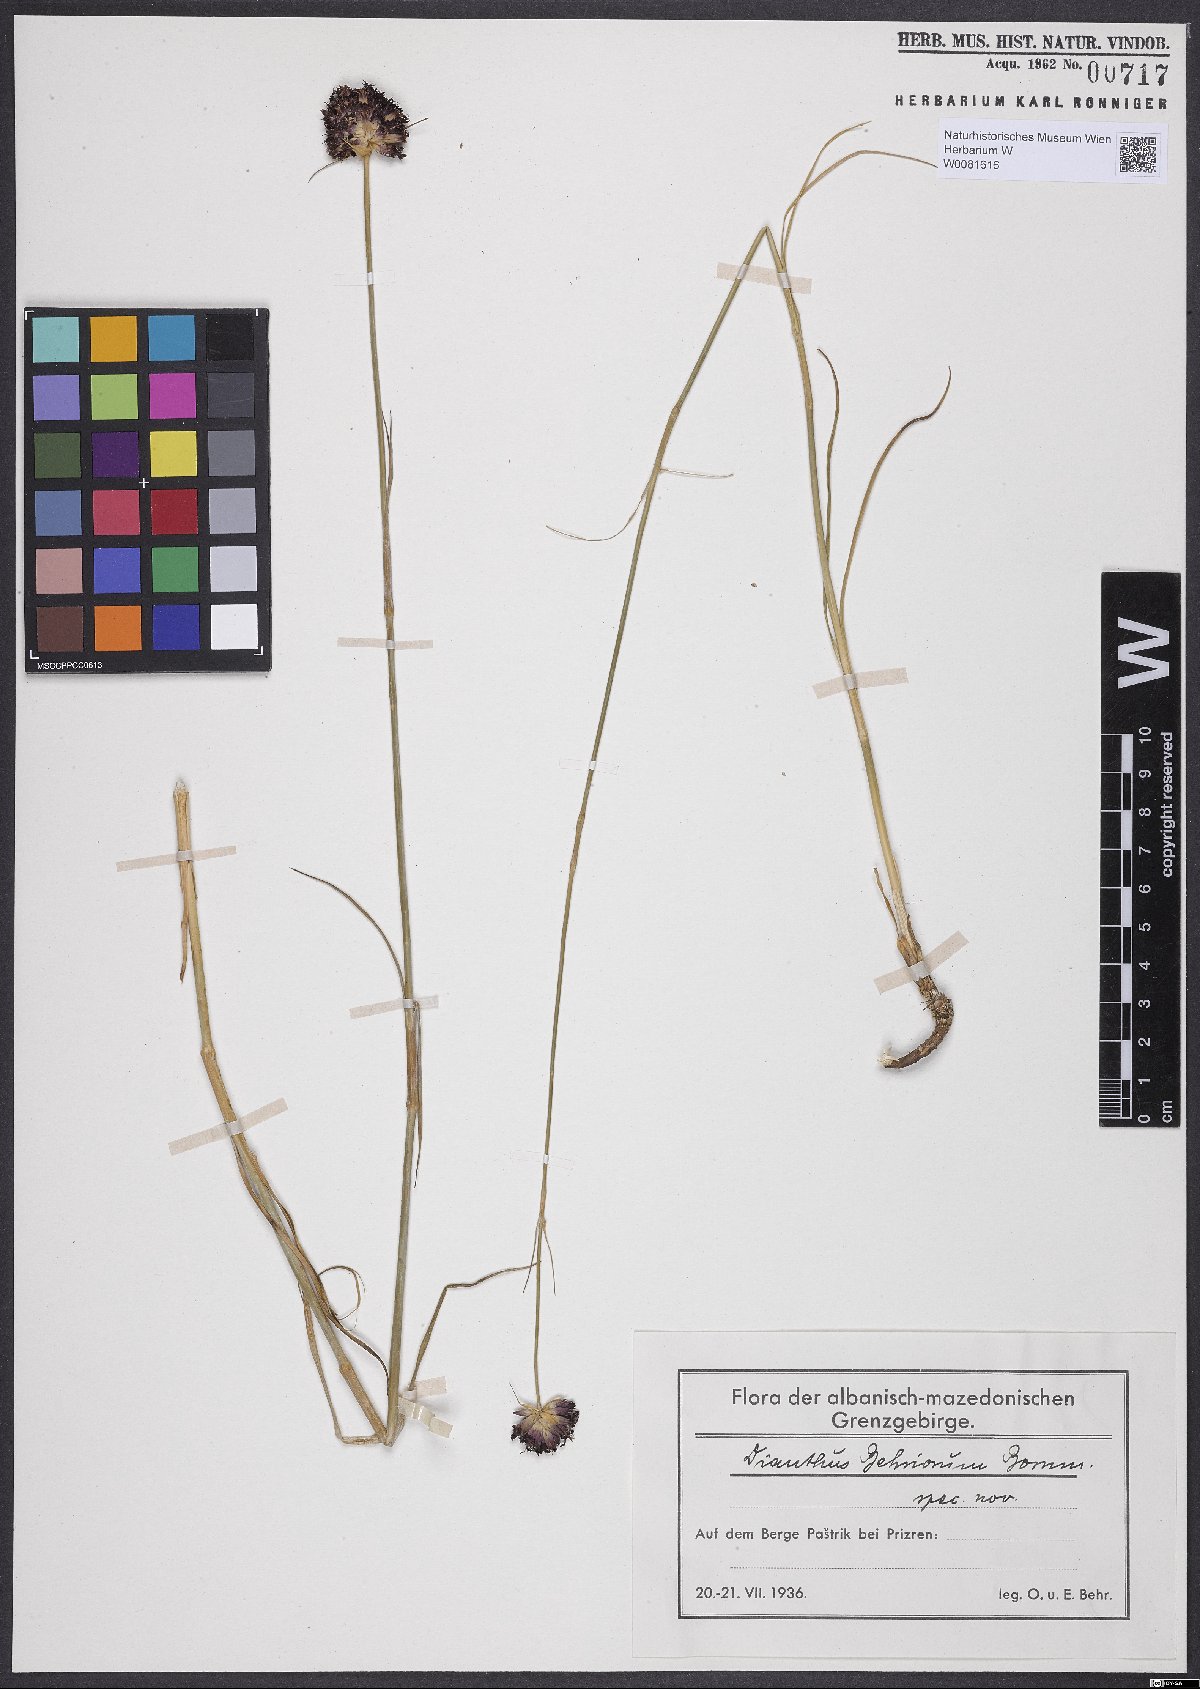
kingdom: Plantae
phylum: Tracheophyta
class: Magnoliopsida
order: Caryophyllales
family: Caryophyllaceae
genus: Dianthus
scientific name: Dianthus carthusianorum
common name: Carthusian pink
